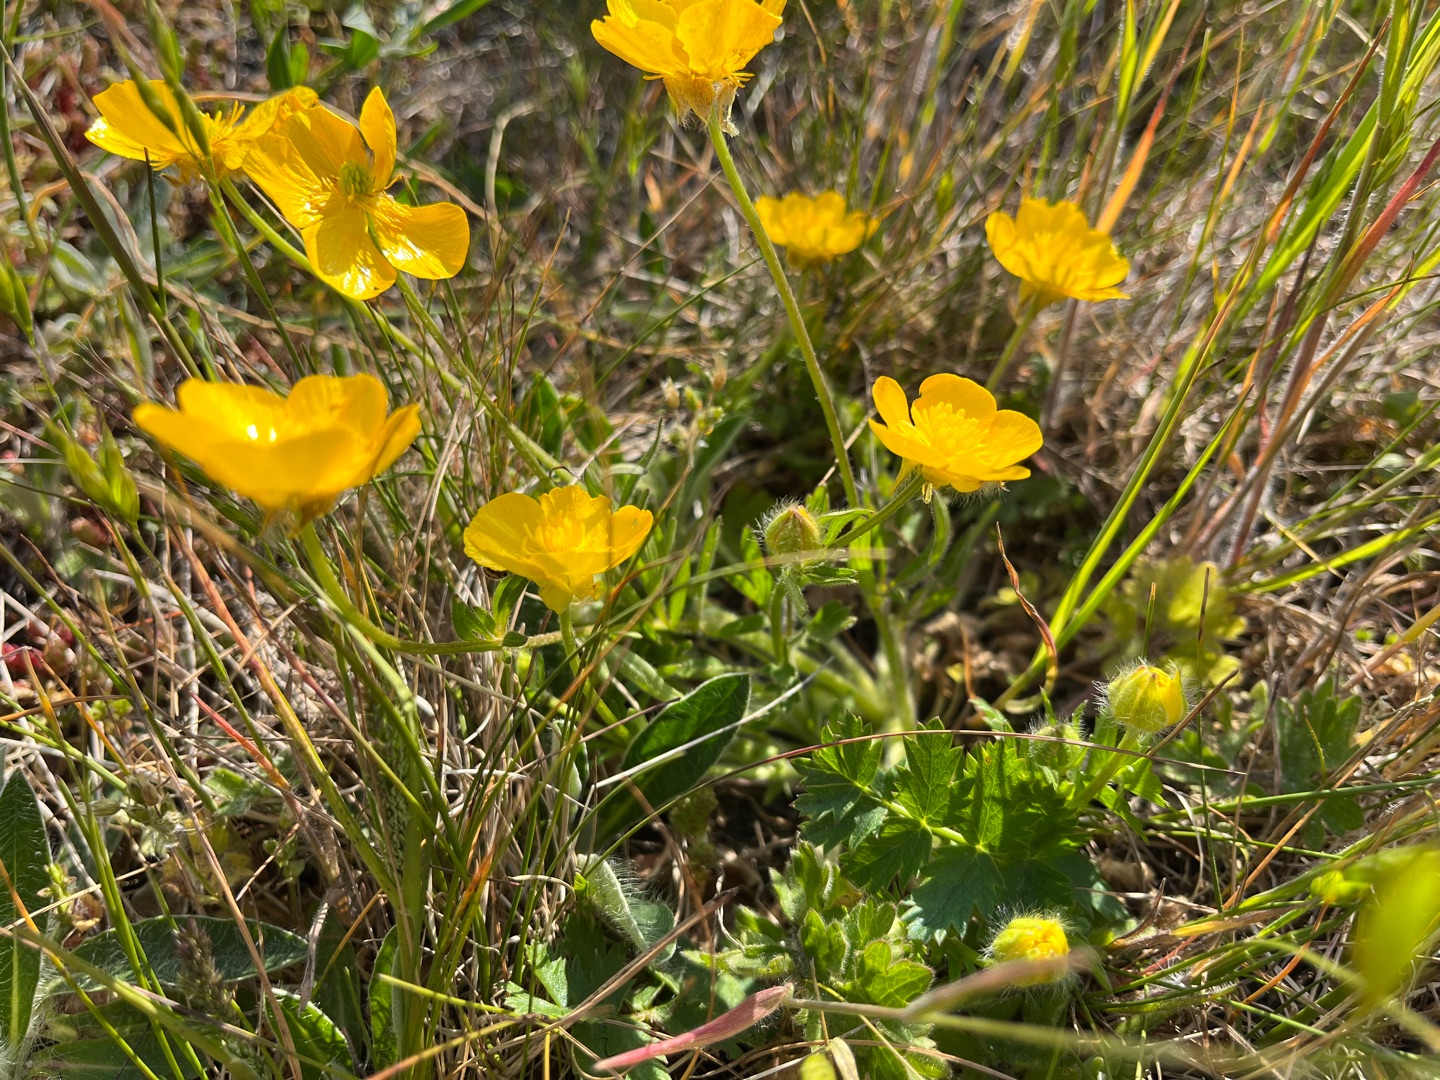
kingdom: Plantae
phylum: Tracheophyta
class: Magnoliopsida
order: Ranunculales
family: Ranunculaceae
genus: Ranunculus
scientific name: Ranunculus bulbosus
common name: Knold-ranunkel
